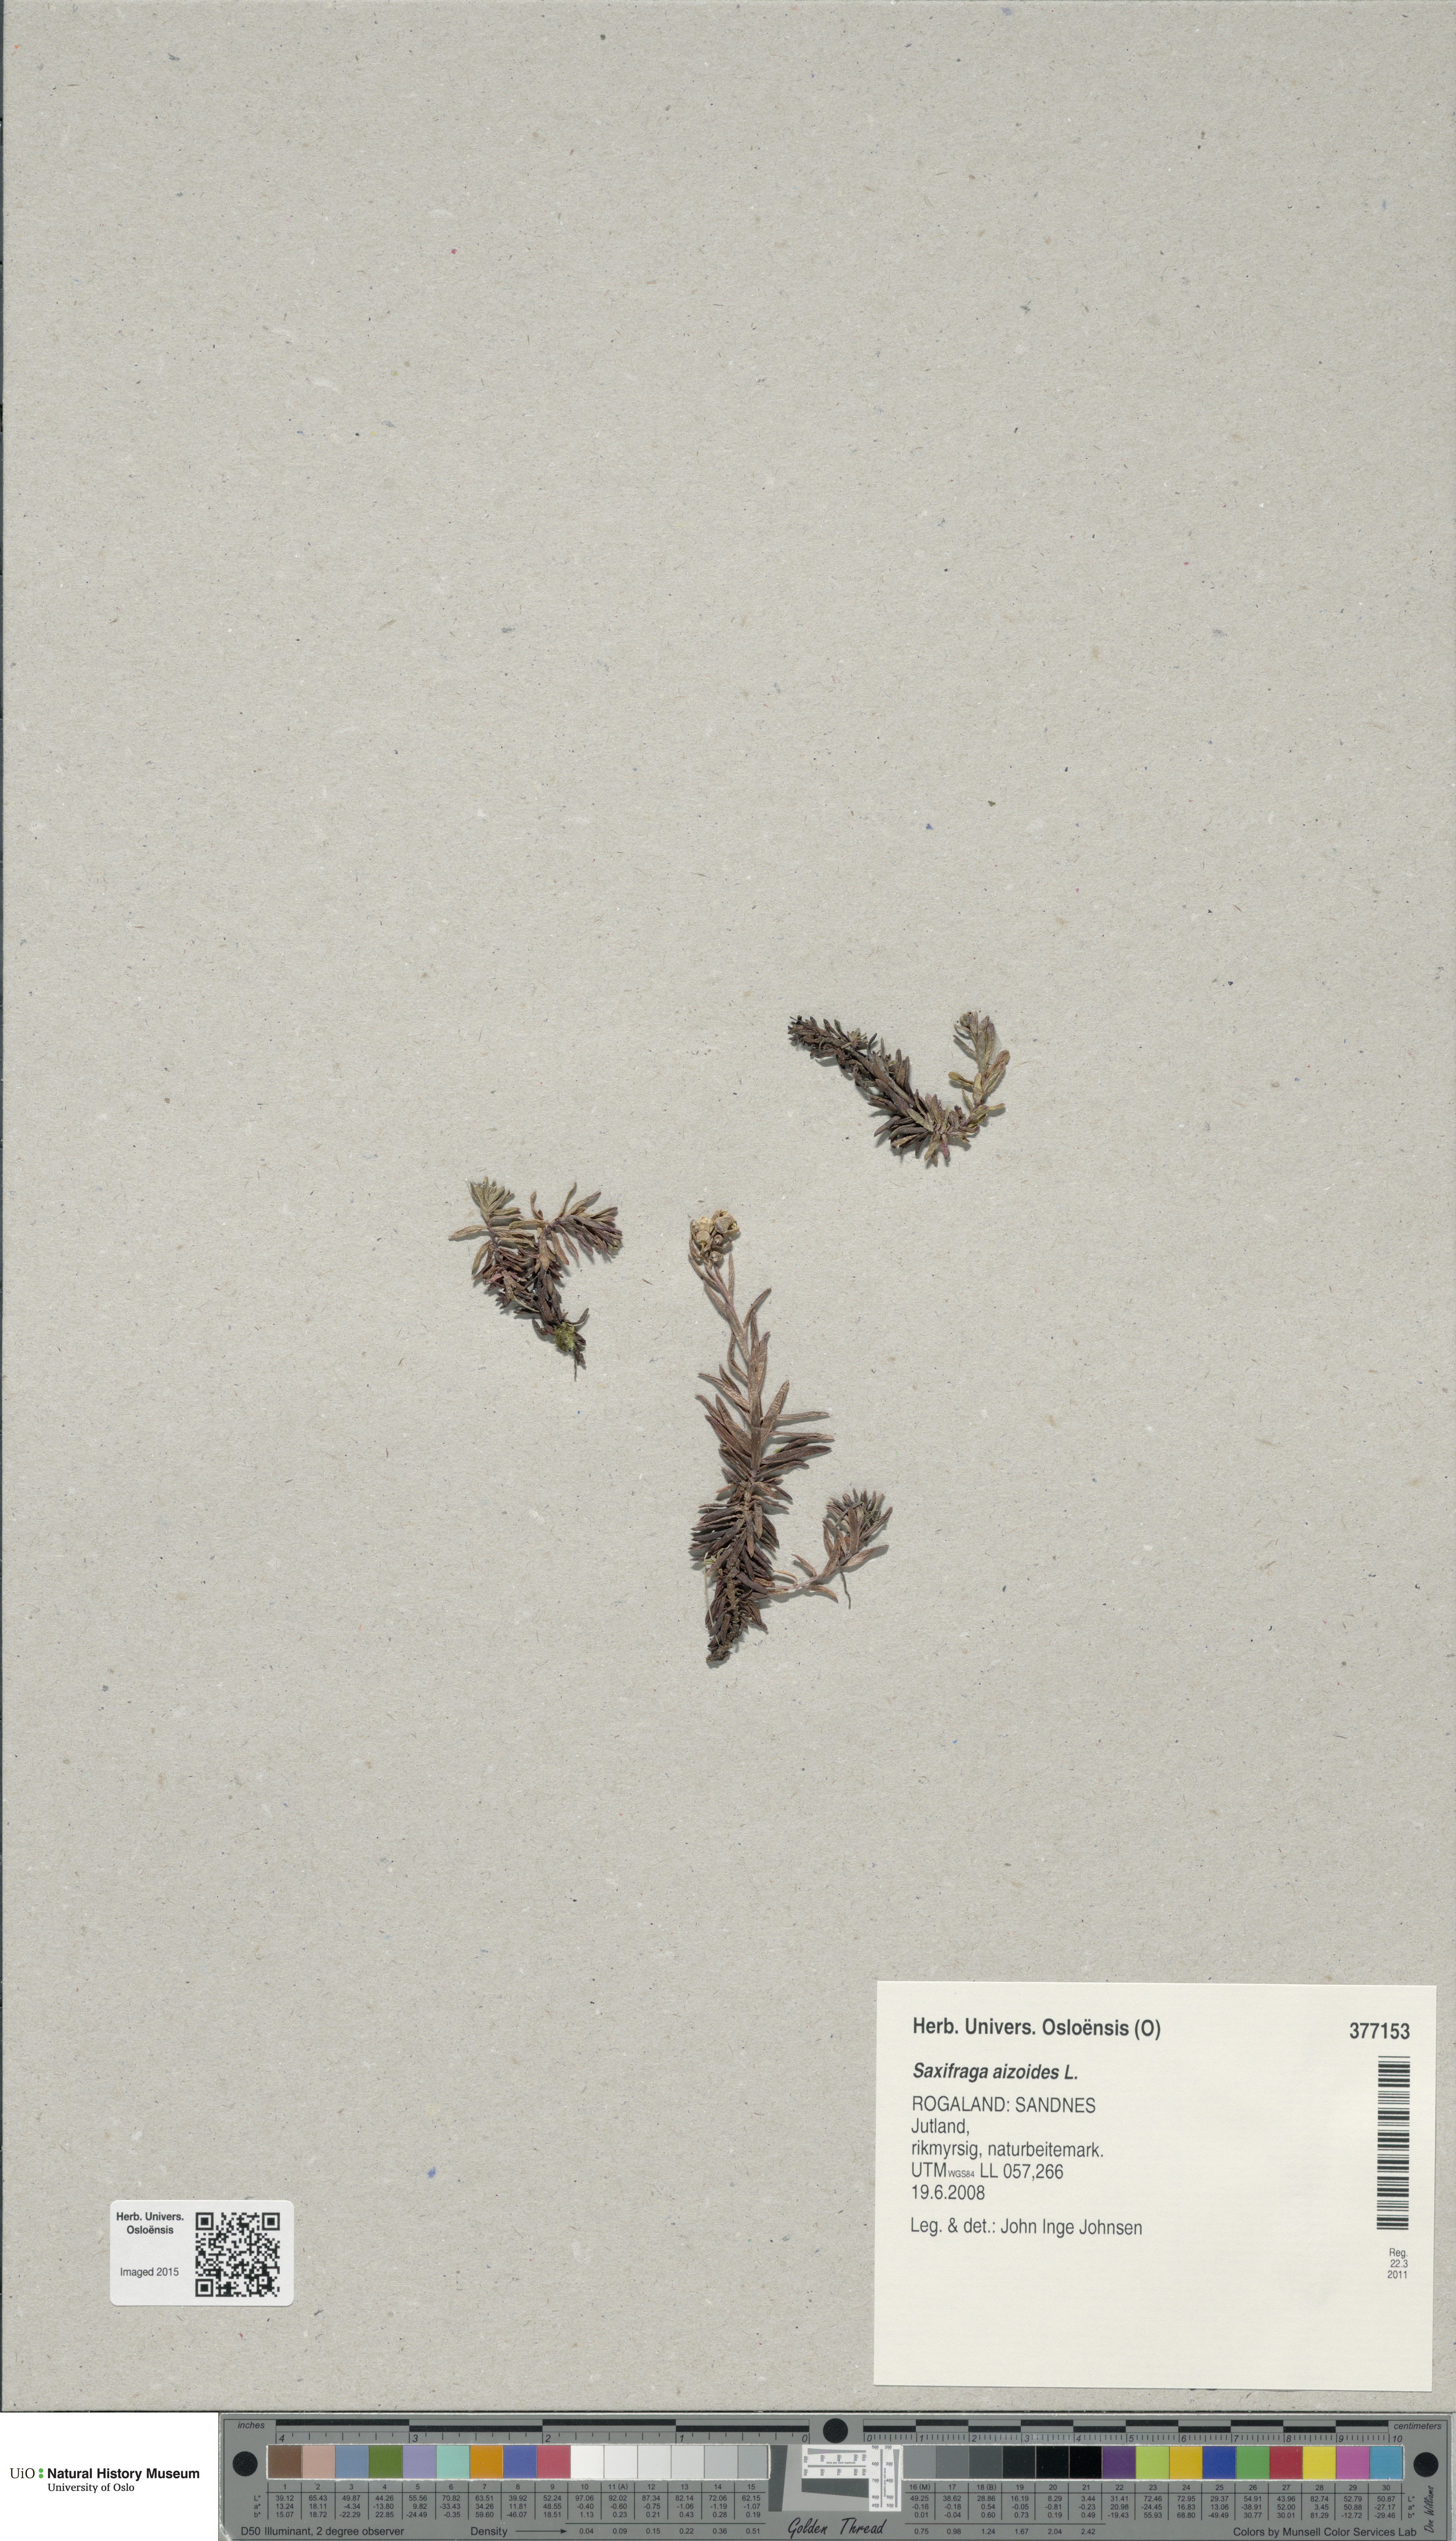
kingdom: Plantae
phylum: Tracheophyta
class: Magnoliopsida
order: Saxifragales
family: Saxifragaceae
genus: Saxifraga
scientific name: Saxifraga aizoides
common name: Yellow mountain saxifrage
